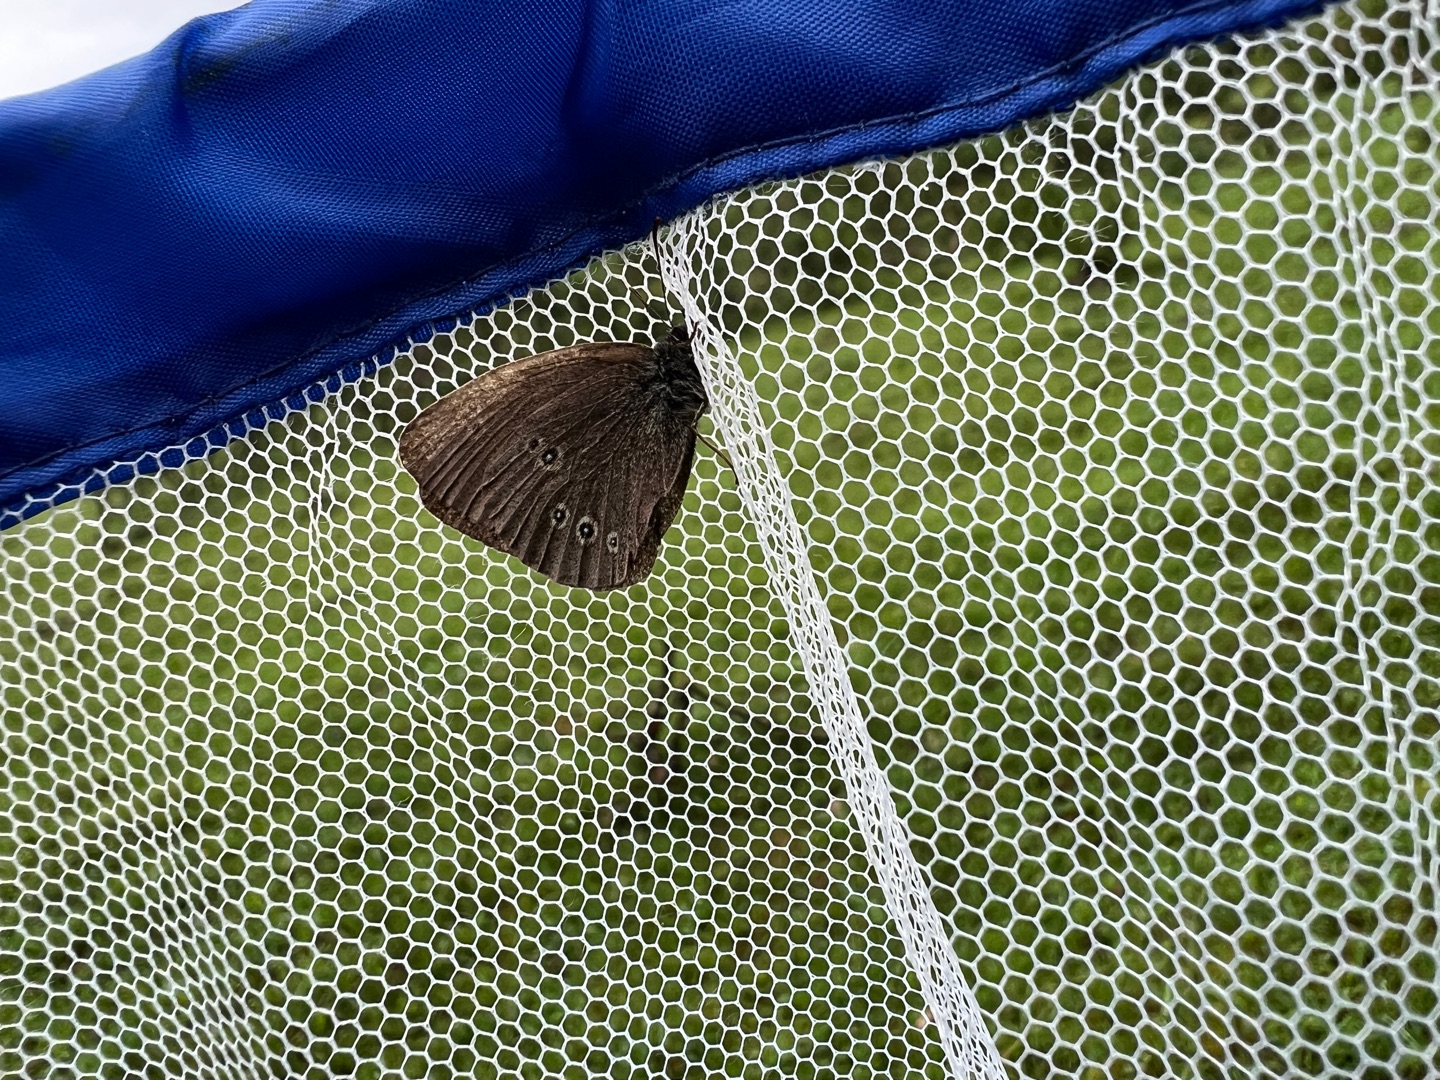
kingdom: Animalia
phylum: Arthropoda
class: Insecta
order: Lepidoptera
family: Nymphalidae
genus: Aphantopus
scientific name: Aphantopus hyperantus
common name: Engrandøje
